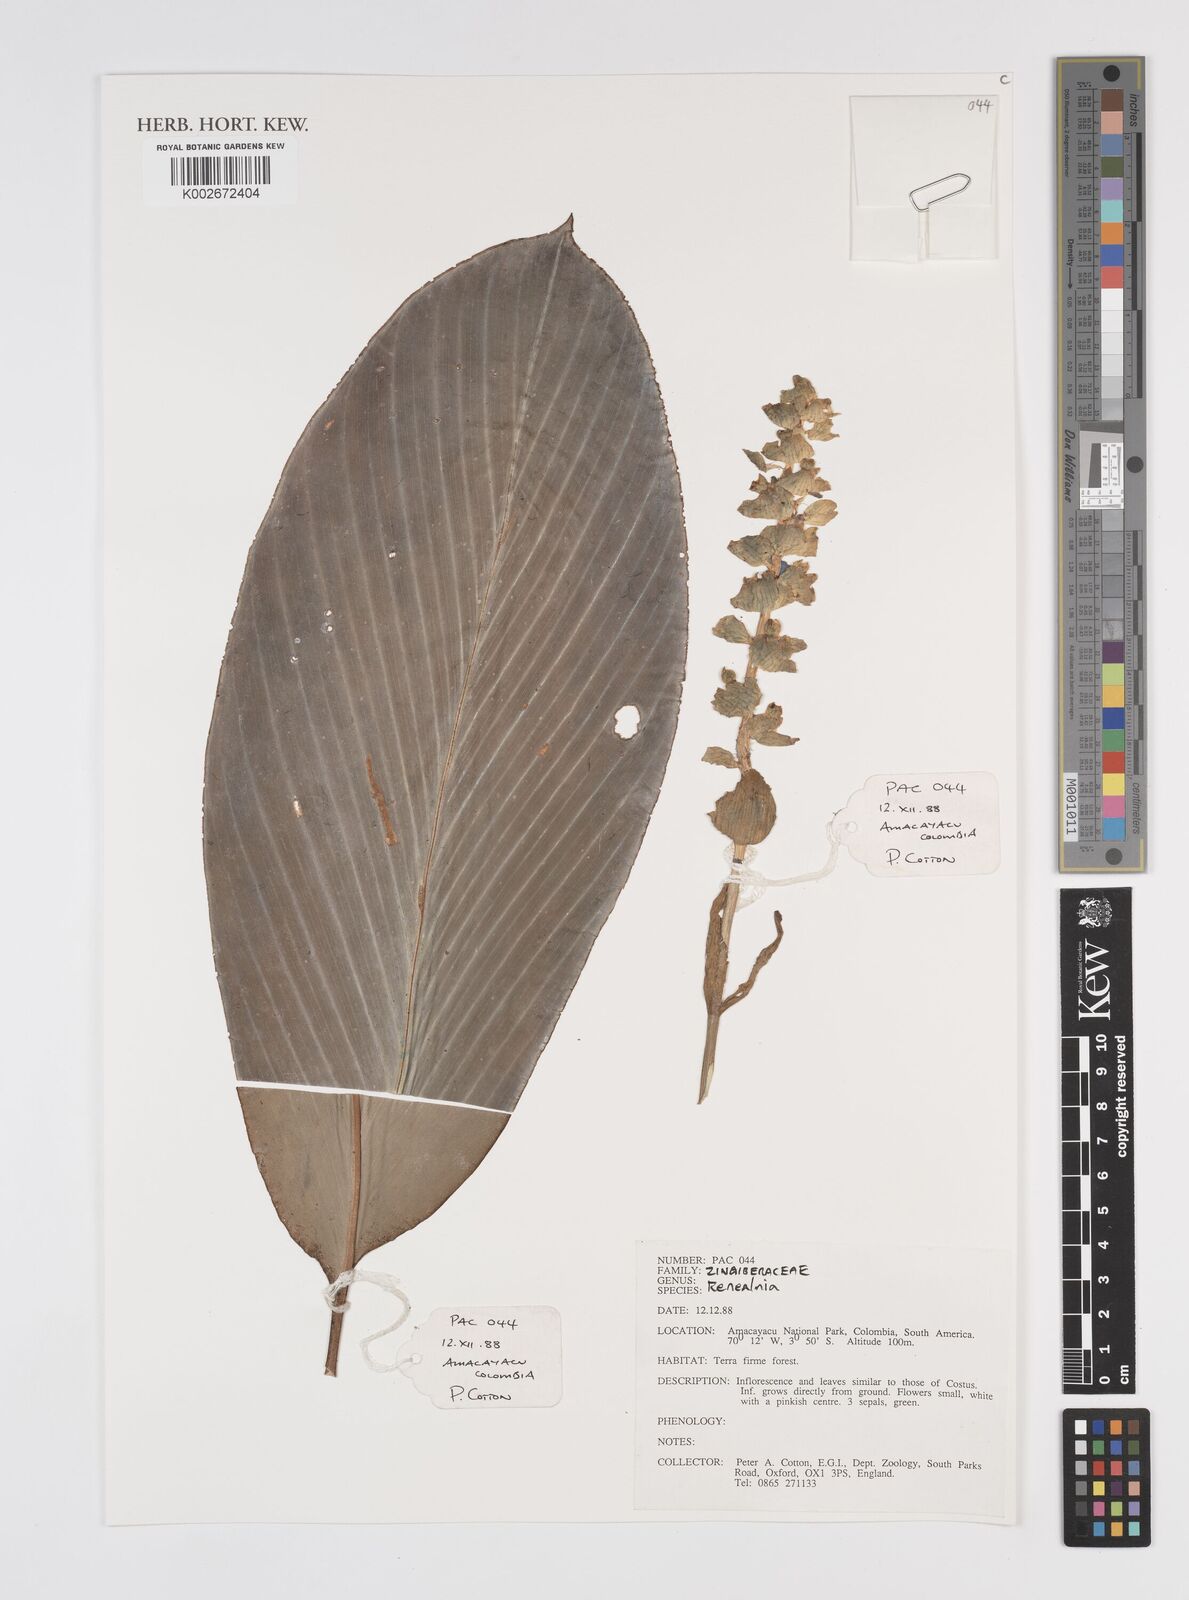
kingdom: Plantae
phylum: Tracheophyta
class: Liliopsida
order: Zingiberales
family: Zingiberaceae
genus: Renealmia
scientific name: Renealmia
